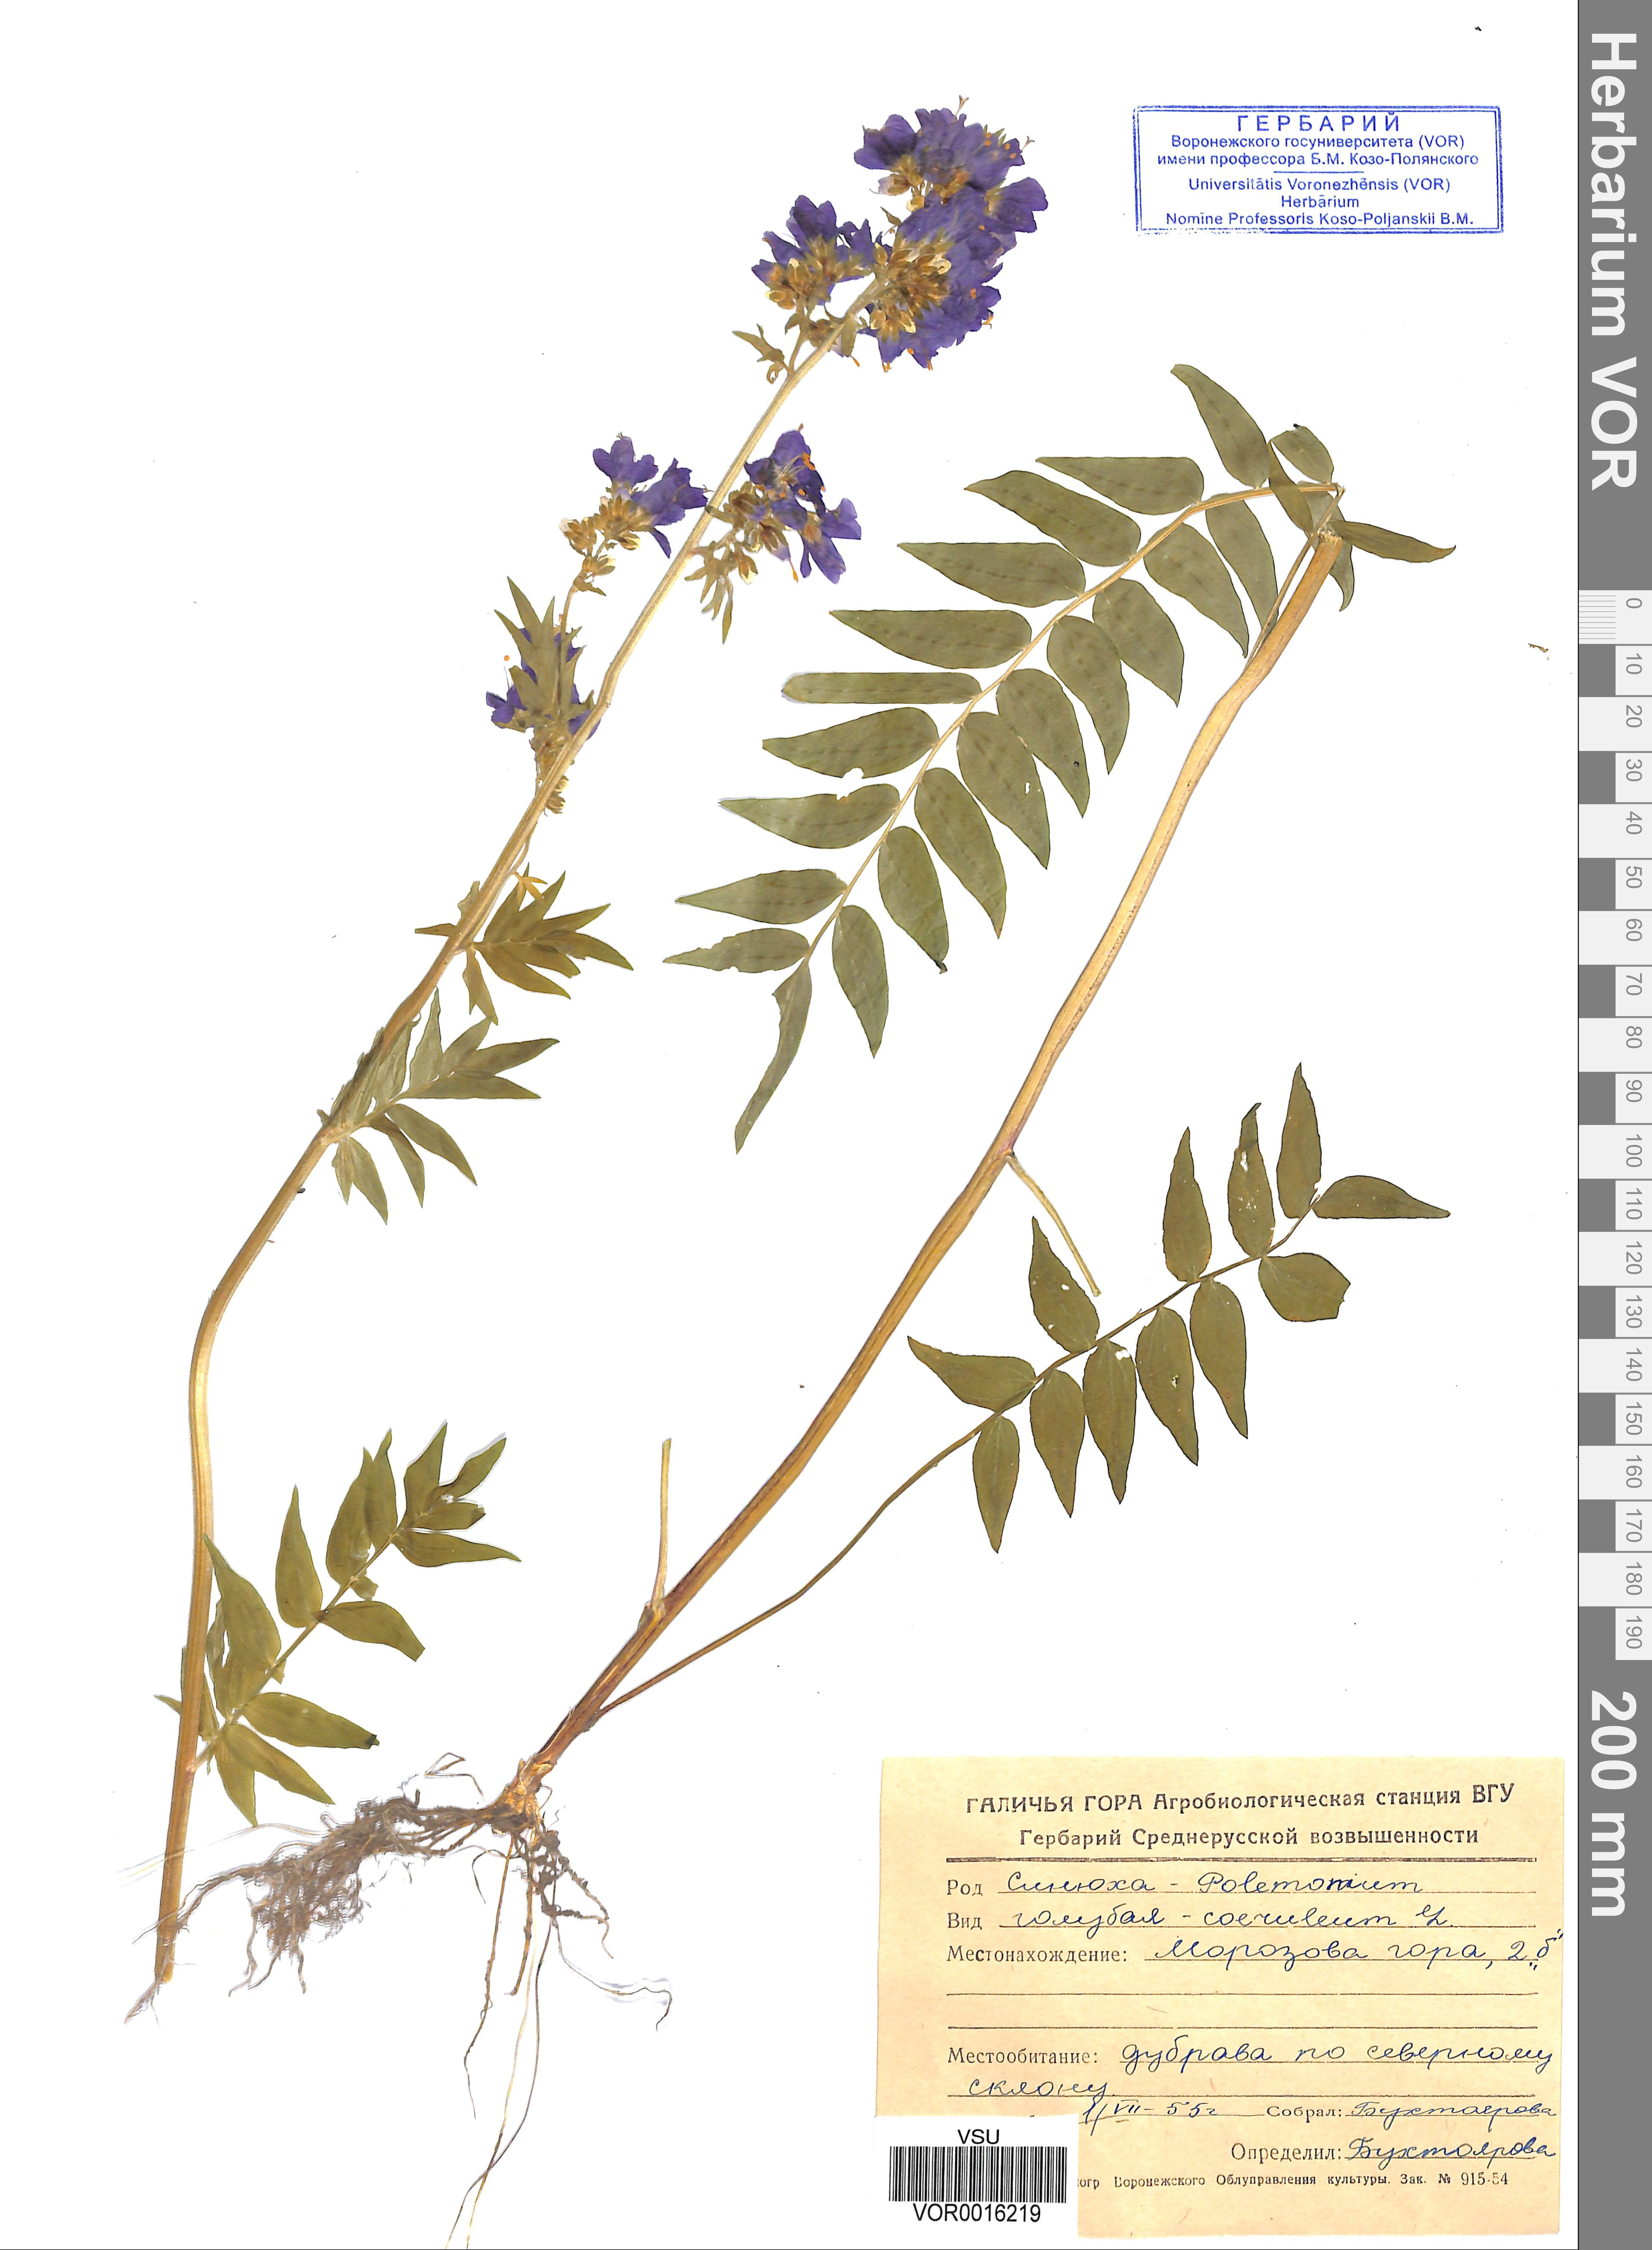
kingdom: Plantae
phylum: Tracheophyta
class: Magnoliopsida
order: Ericales
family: Polemoniaceae
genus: Polemonium
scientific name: Polemonium caeruleum
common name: Jacob's-ladder
